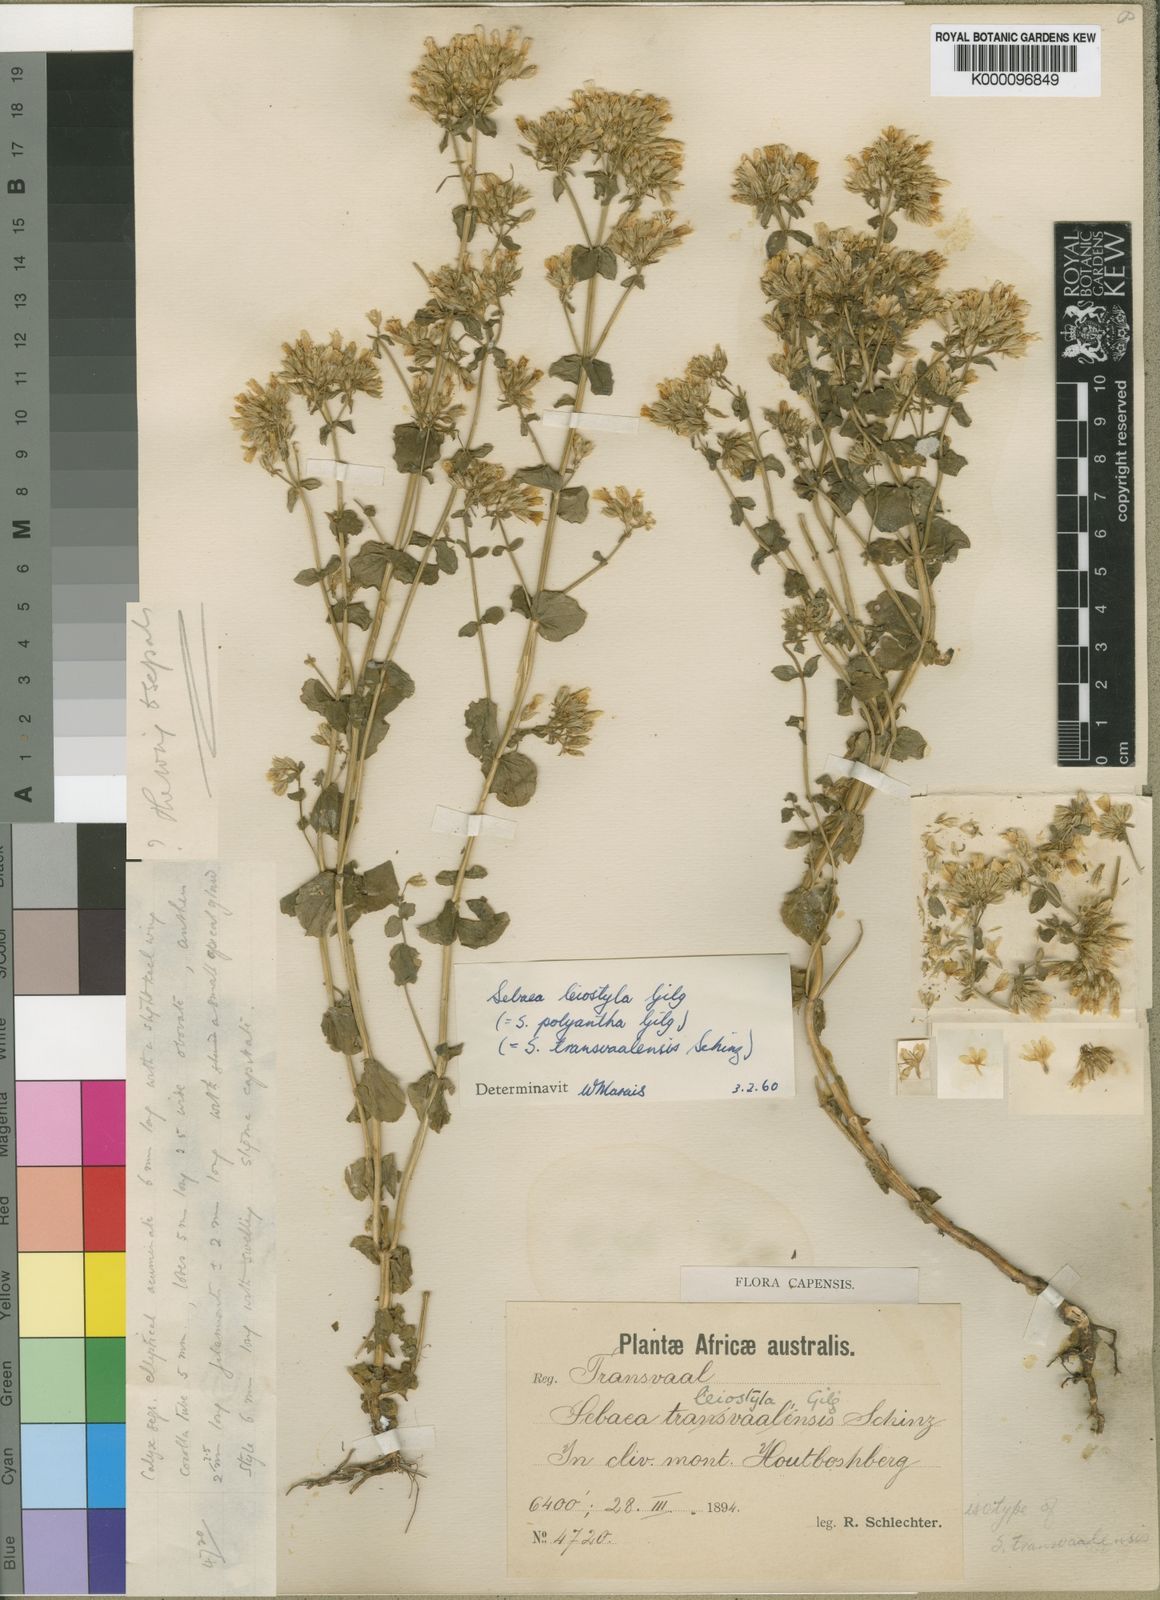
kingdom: Plantae
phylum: Tracheophyta
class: Magnoliopsida
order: Gentianales
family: Gentianaceae
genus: Sebaea
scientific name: Sebaea leiostyla
